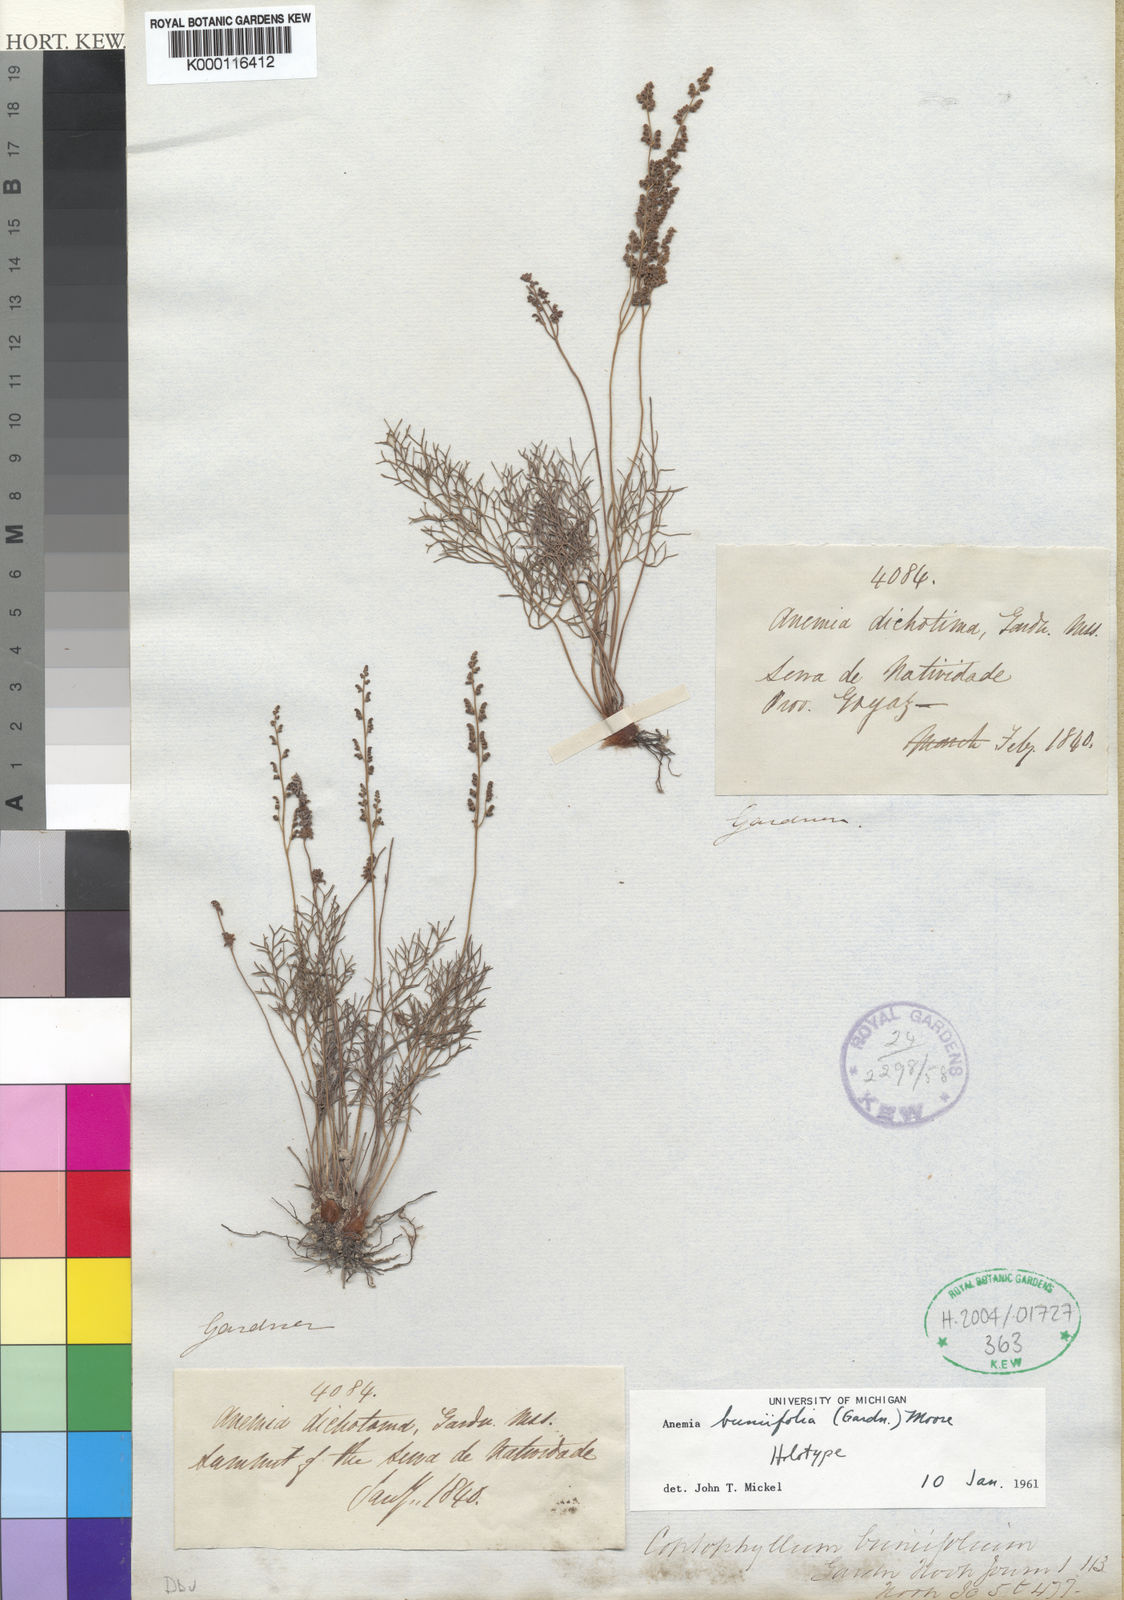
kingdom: Plantae
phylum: Tracheophyta
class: Polypodiopsida
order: Schizaeales
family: Anemiaceae
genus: Anemia
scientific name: Anemia buniifolia
